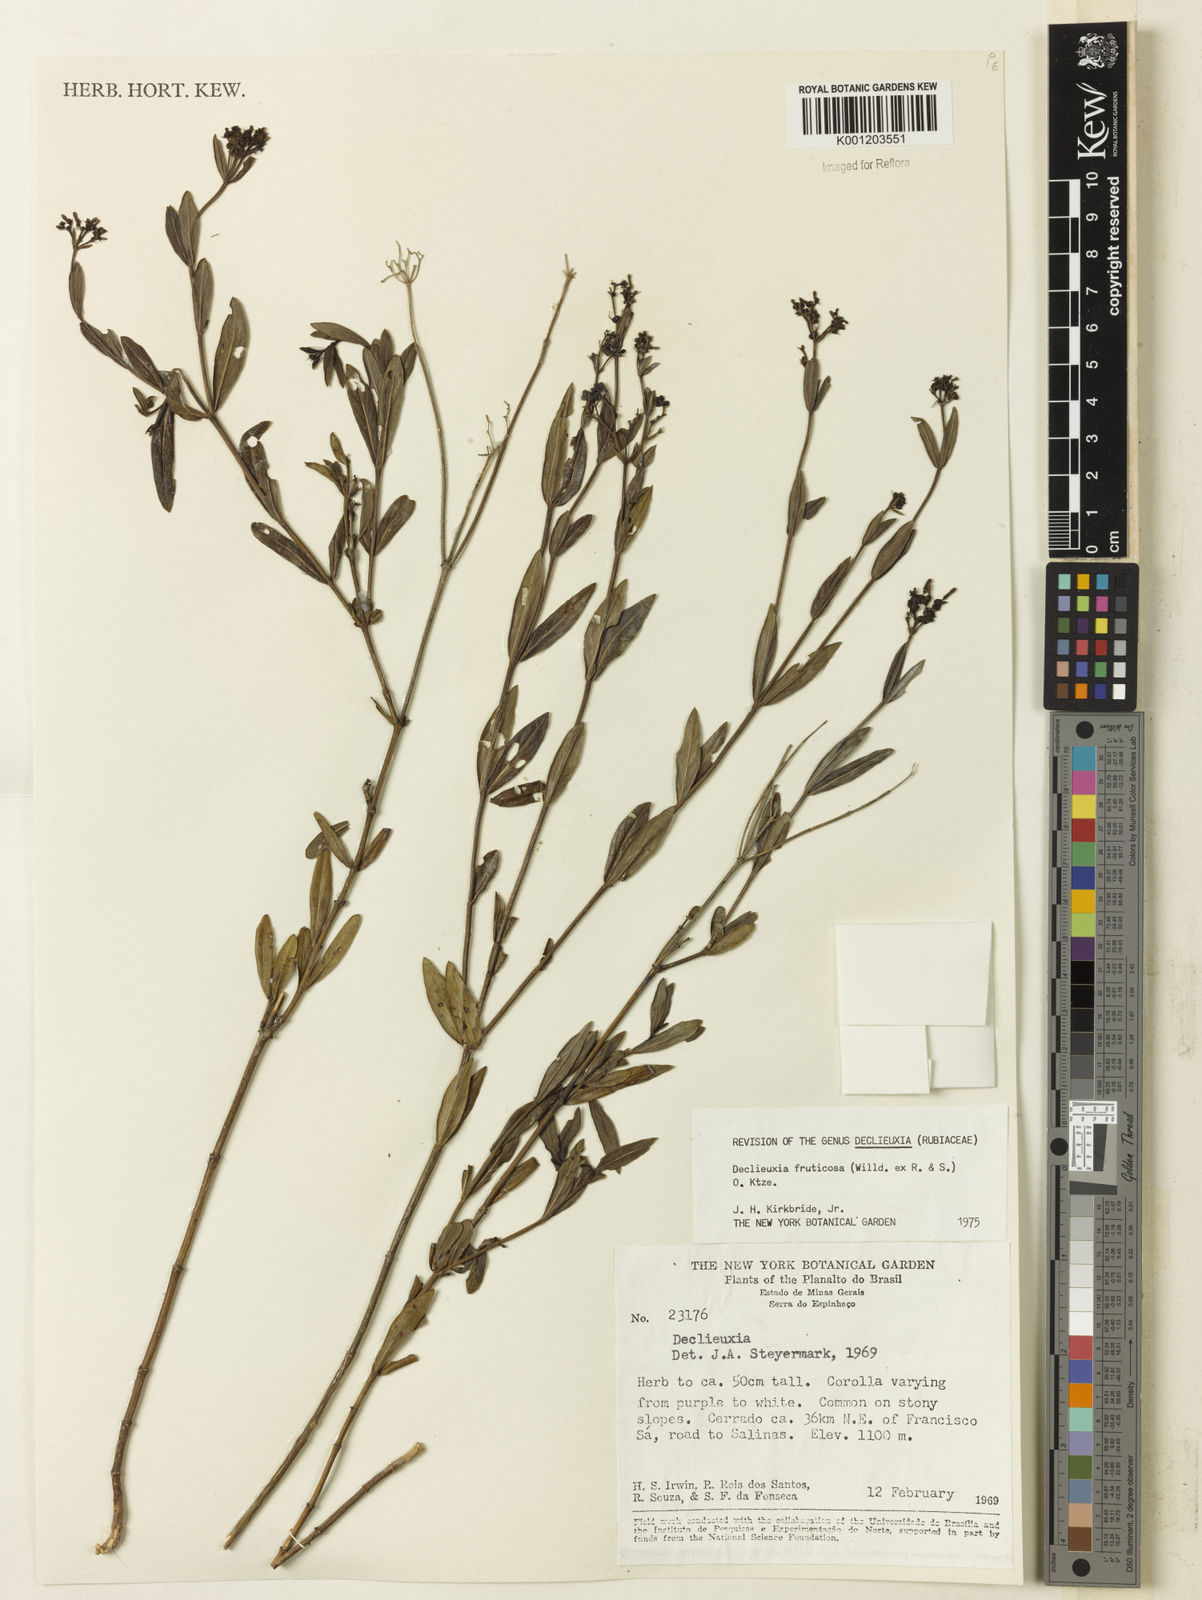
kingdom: Plantae
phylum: Tracheophyta
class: Magnoliopsida
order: Gentianales
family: Rubiaceae
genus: Declieuxia
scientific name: Declieuxia fruticosa
